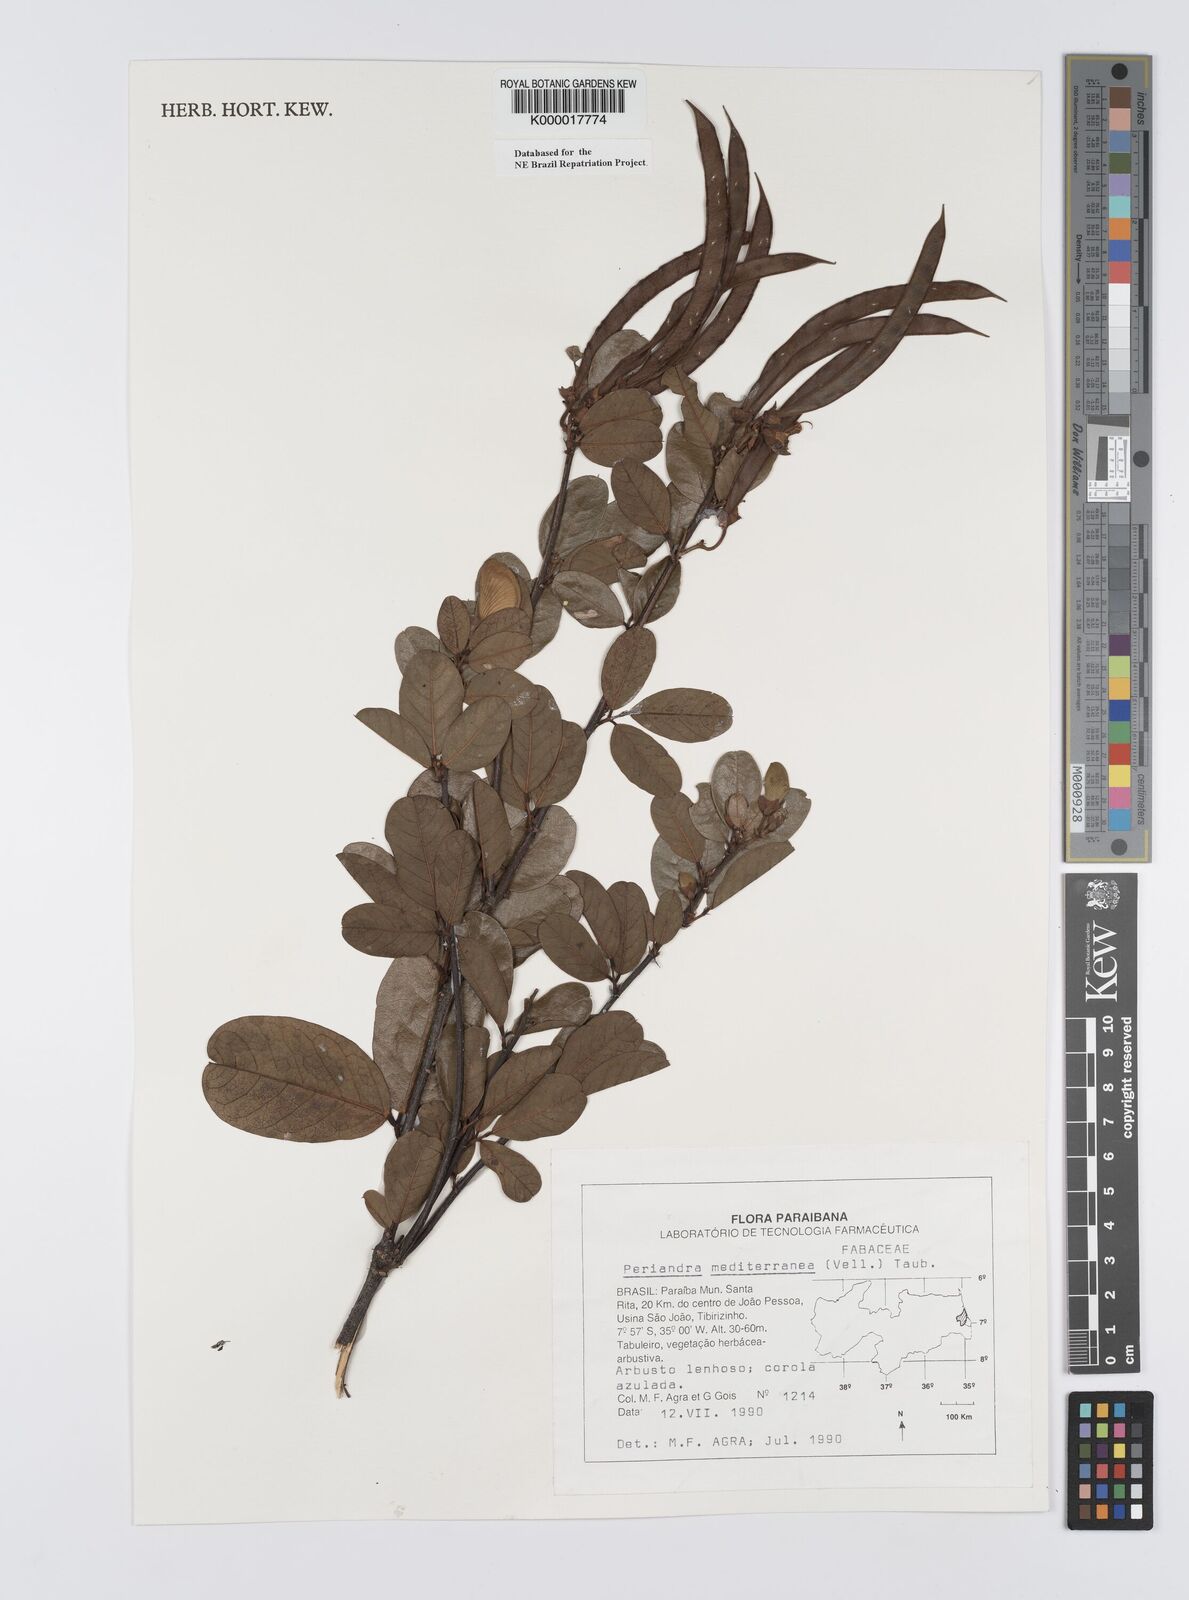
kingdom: Plantae
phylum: Tracheophyta
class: Magnoliopsida
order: Fabales
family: Fabaceae
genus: Periandra
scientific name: Periandra mediterranea
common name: Brazilian licorice
